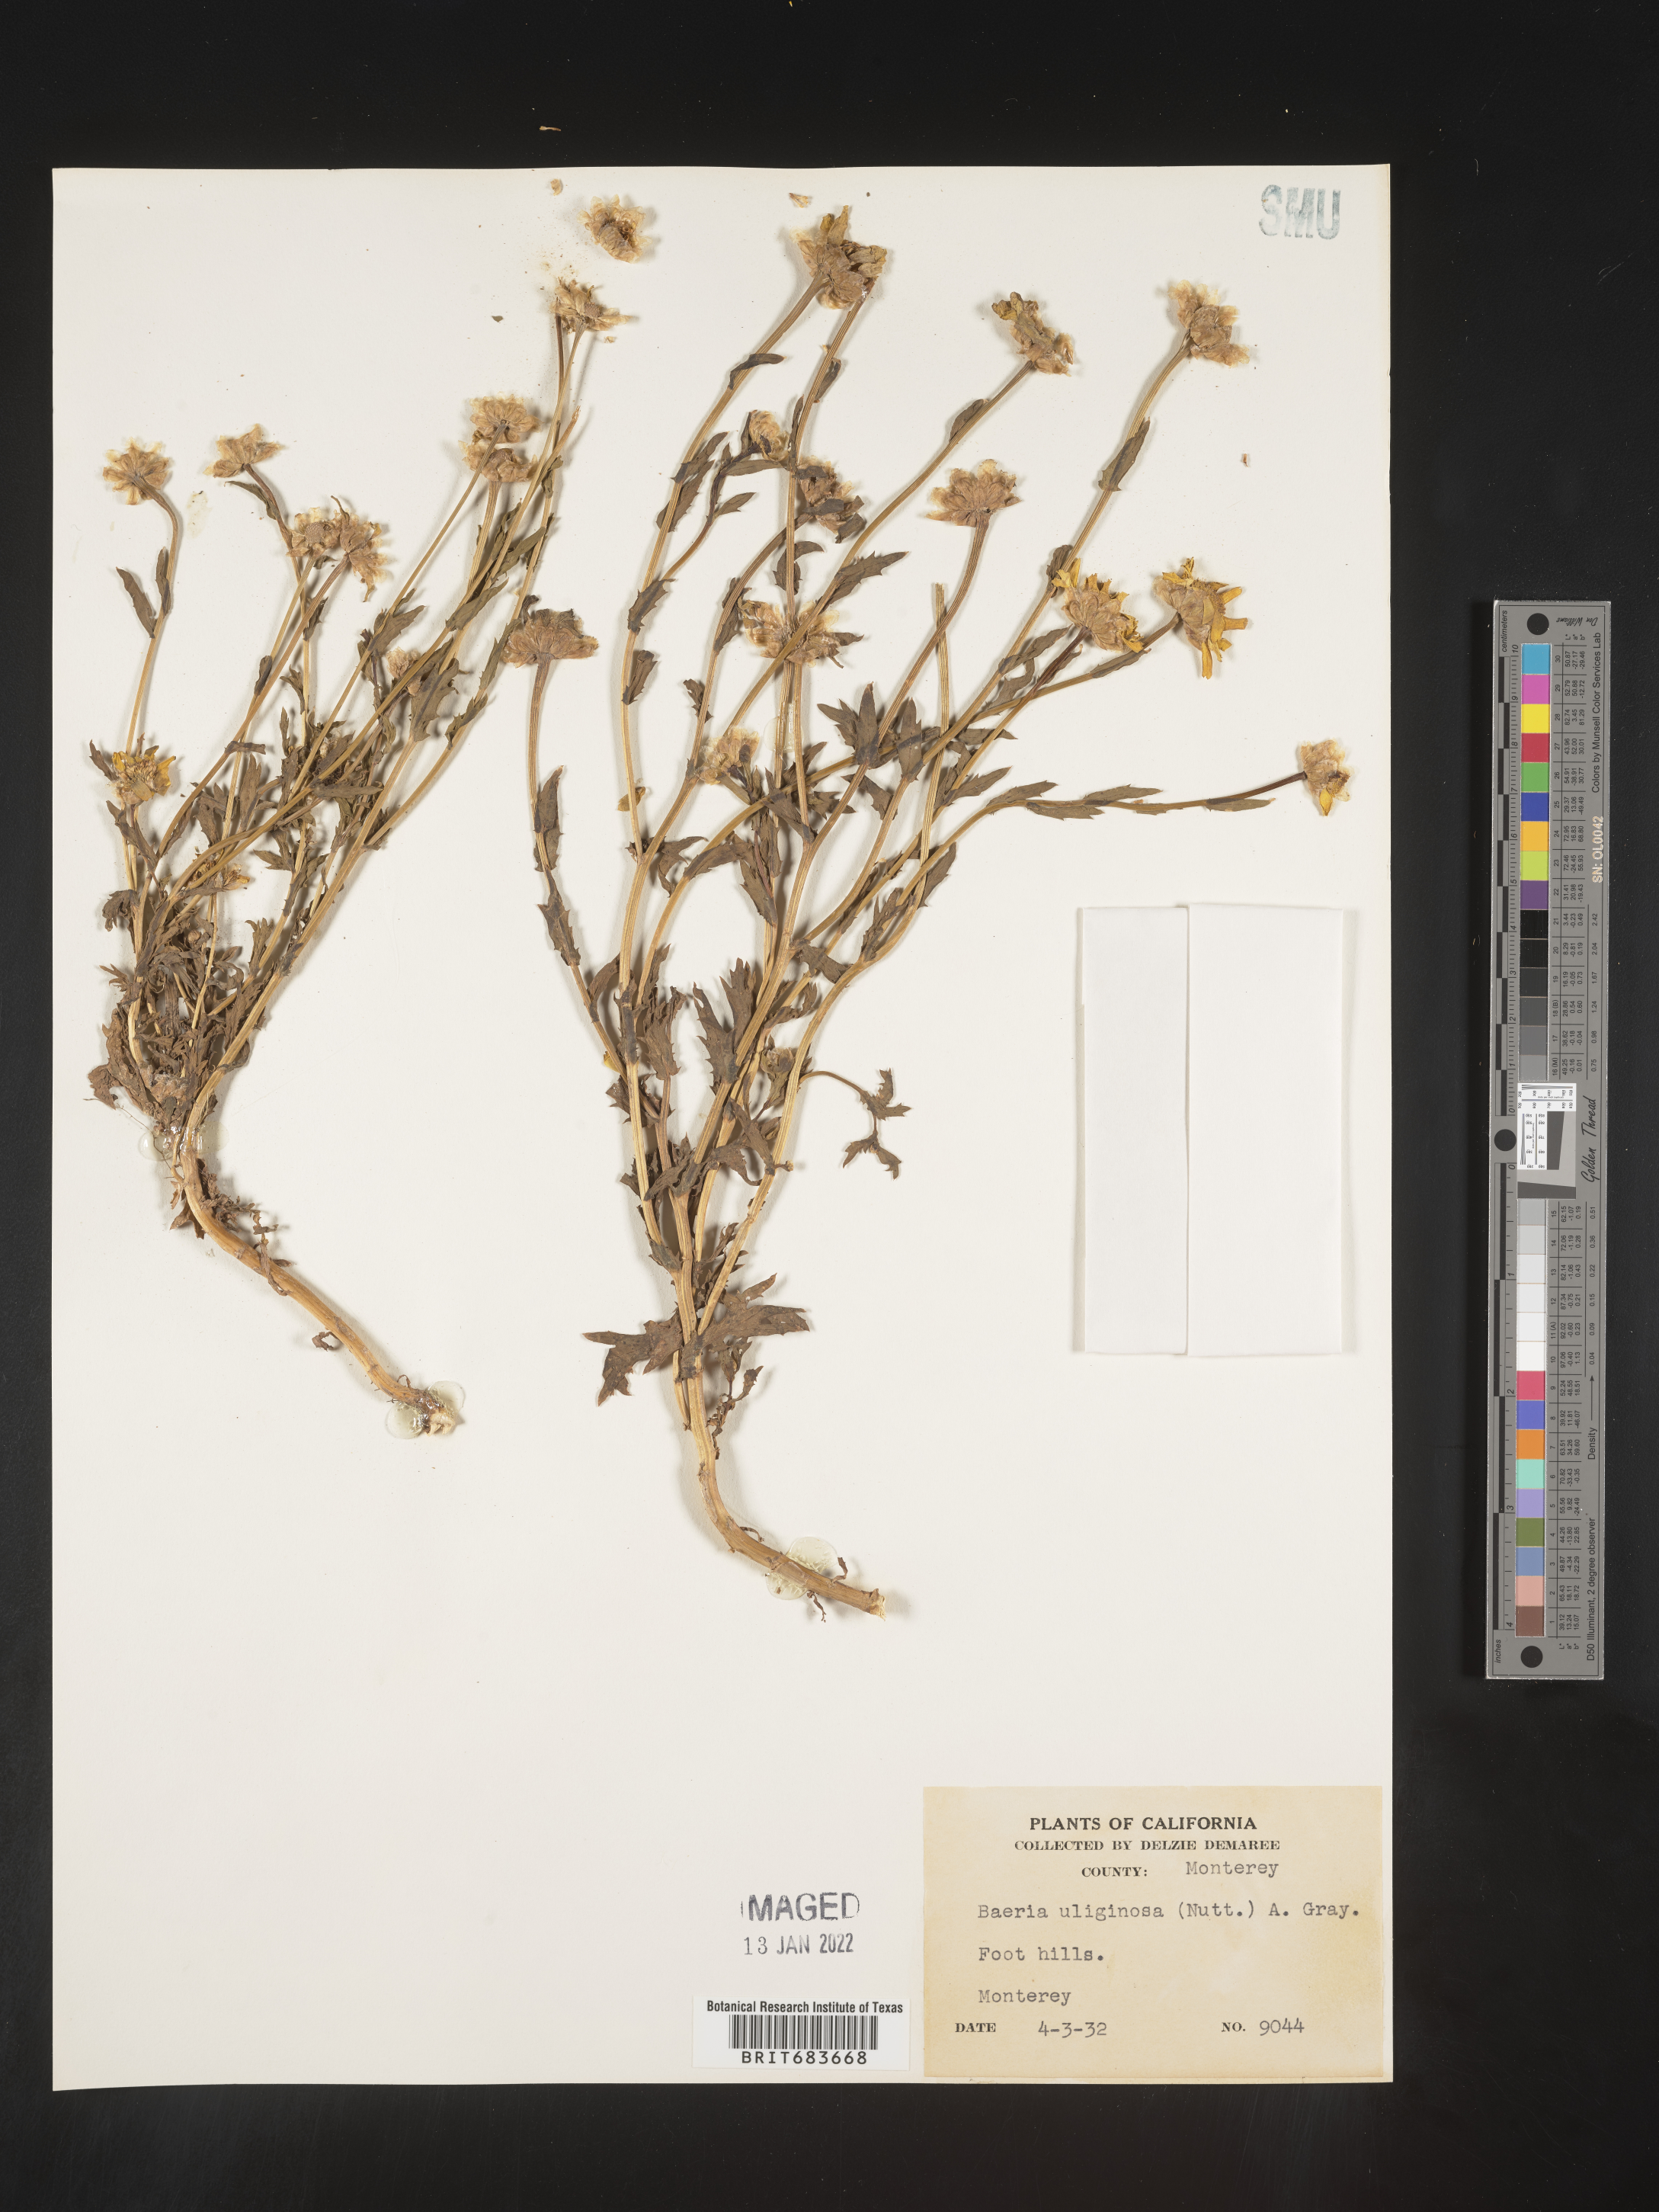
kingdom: Plantae
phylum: Tracheophyta
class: Magnoliopsida
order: Asterales
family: Asteraceae
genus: Lasthenia
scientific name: Lasthenia
